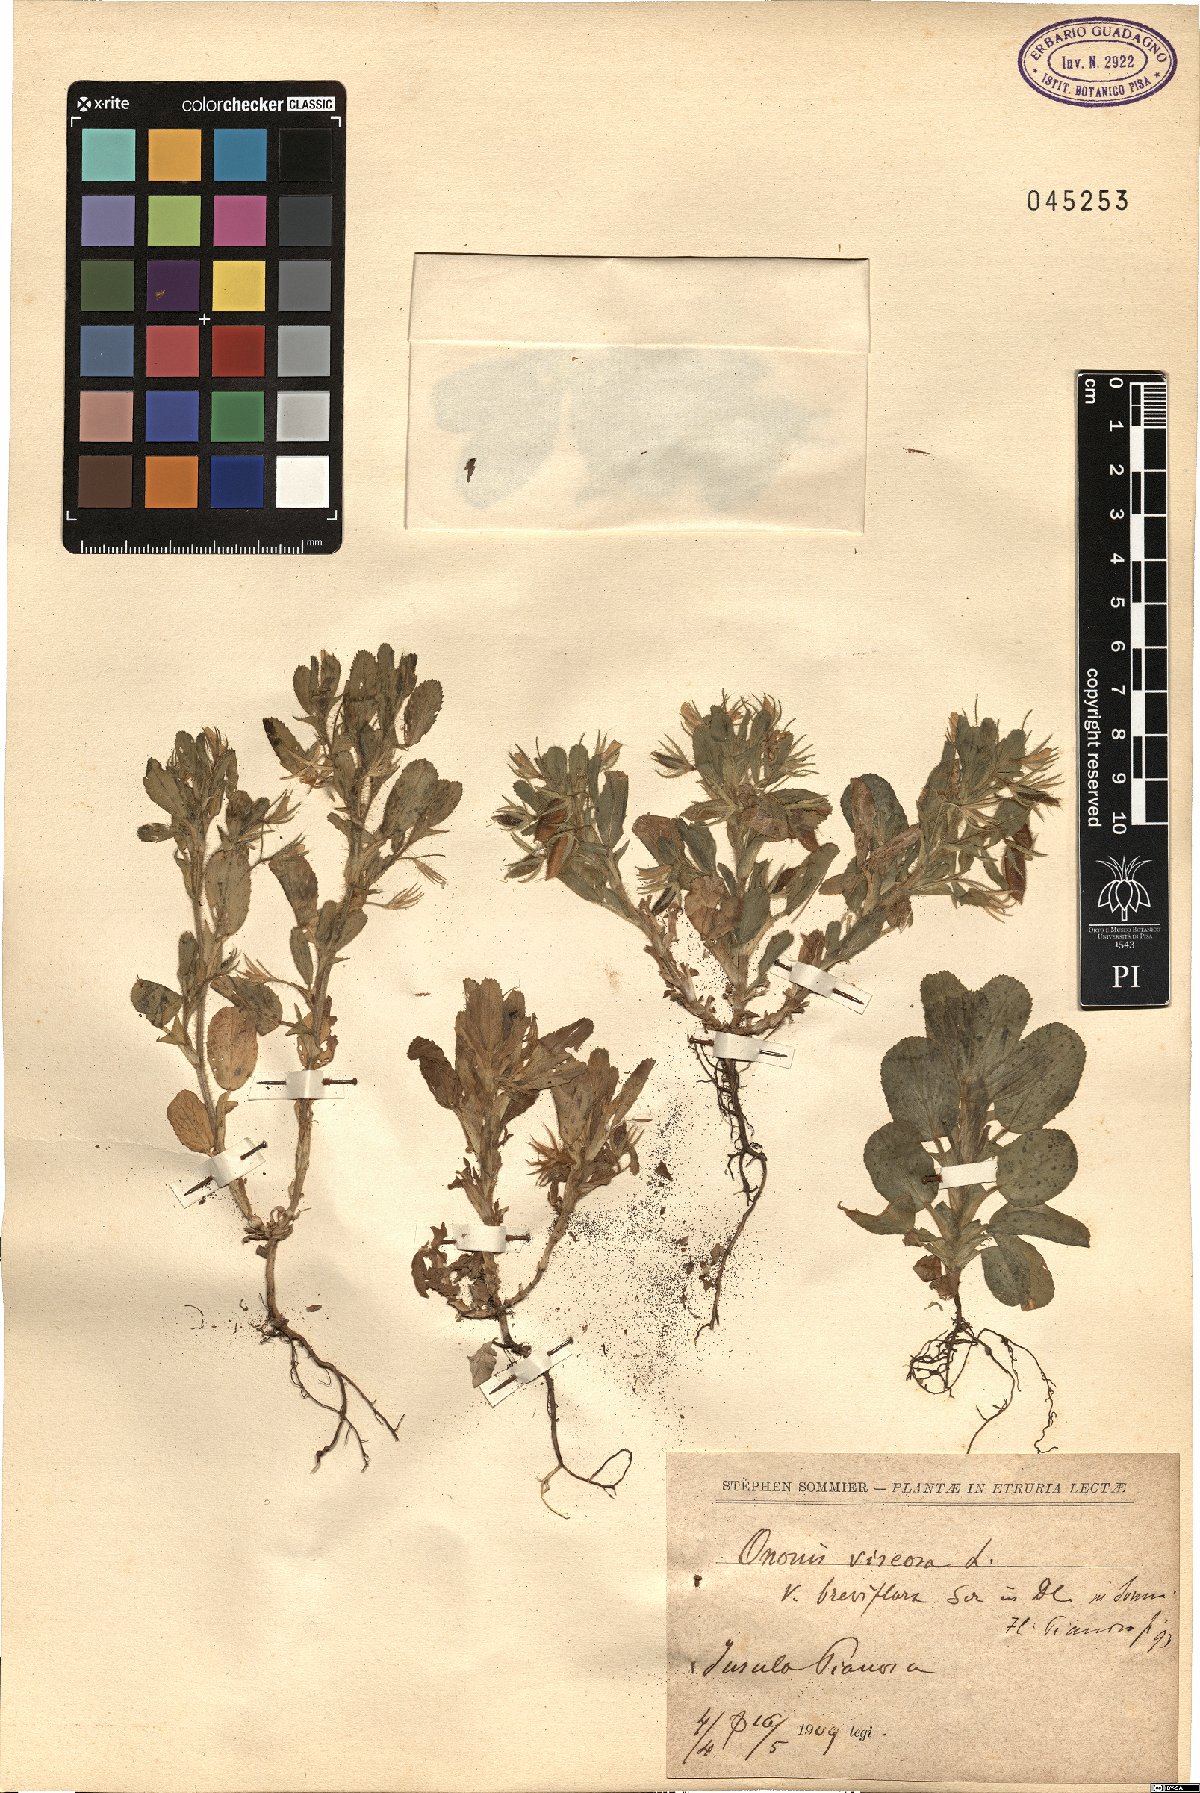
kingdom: Plantae
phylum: Tracheophyta
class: Magnoliopsida
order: Fabales
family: Fabaceae
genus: Ononis
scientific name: Ononis viscosa
